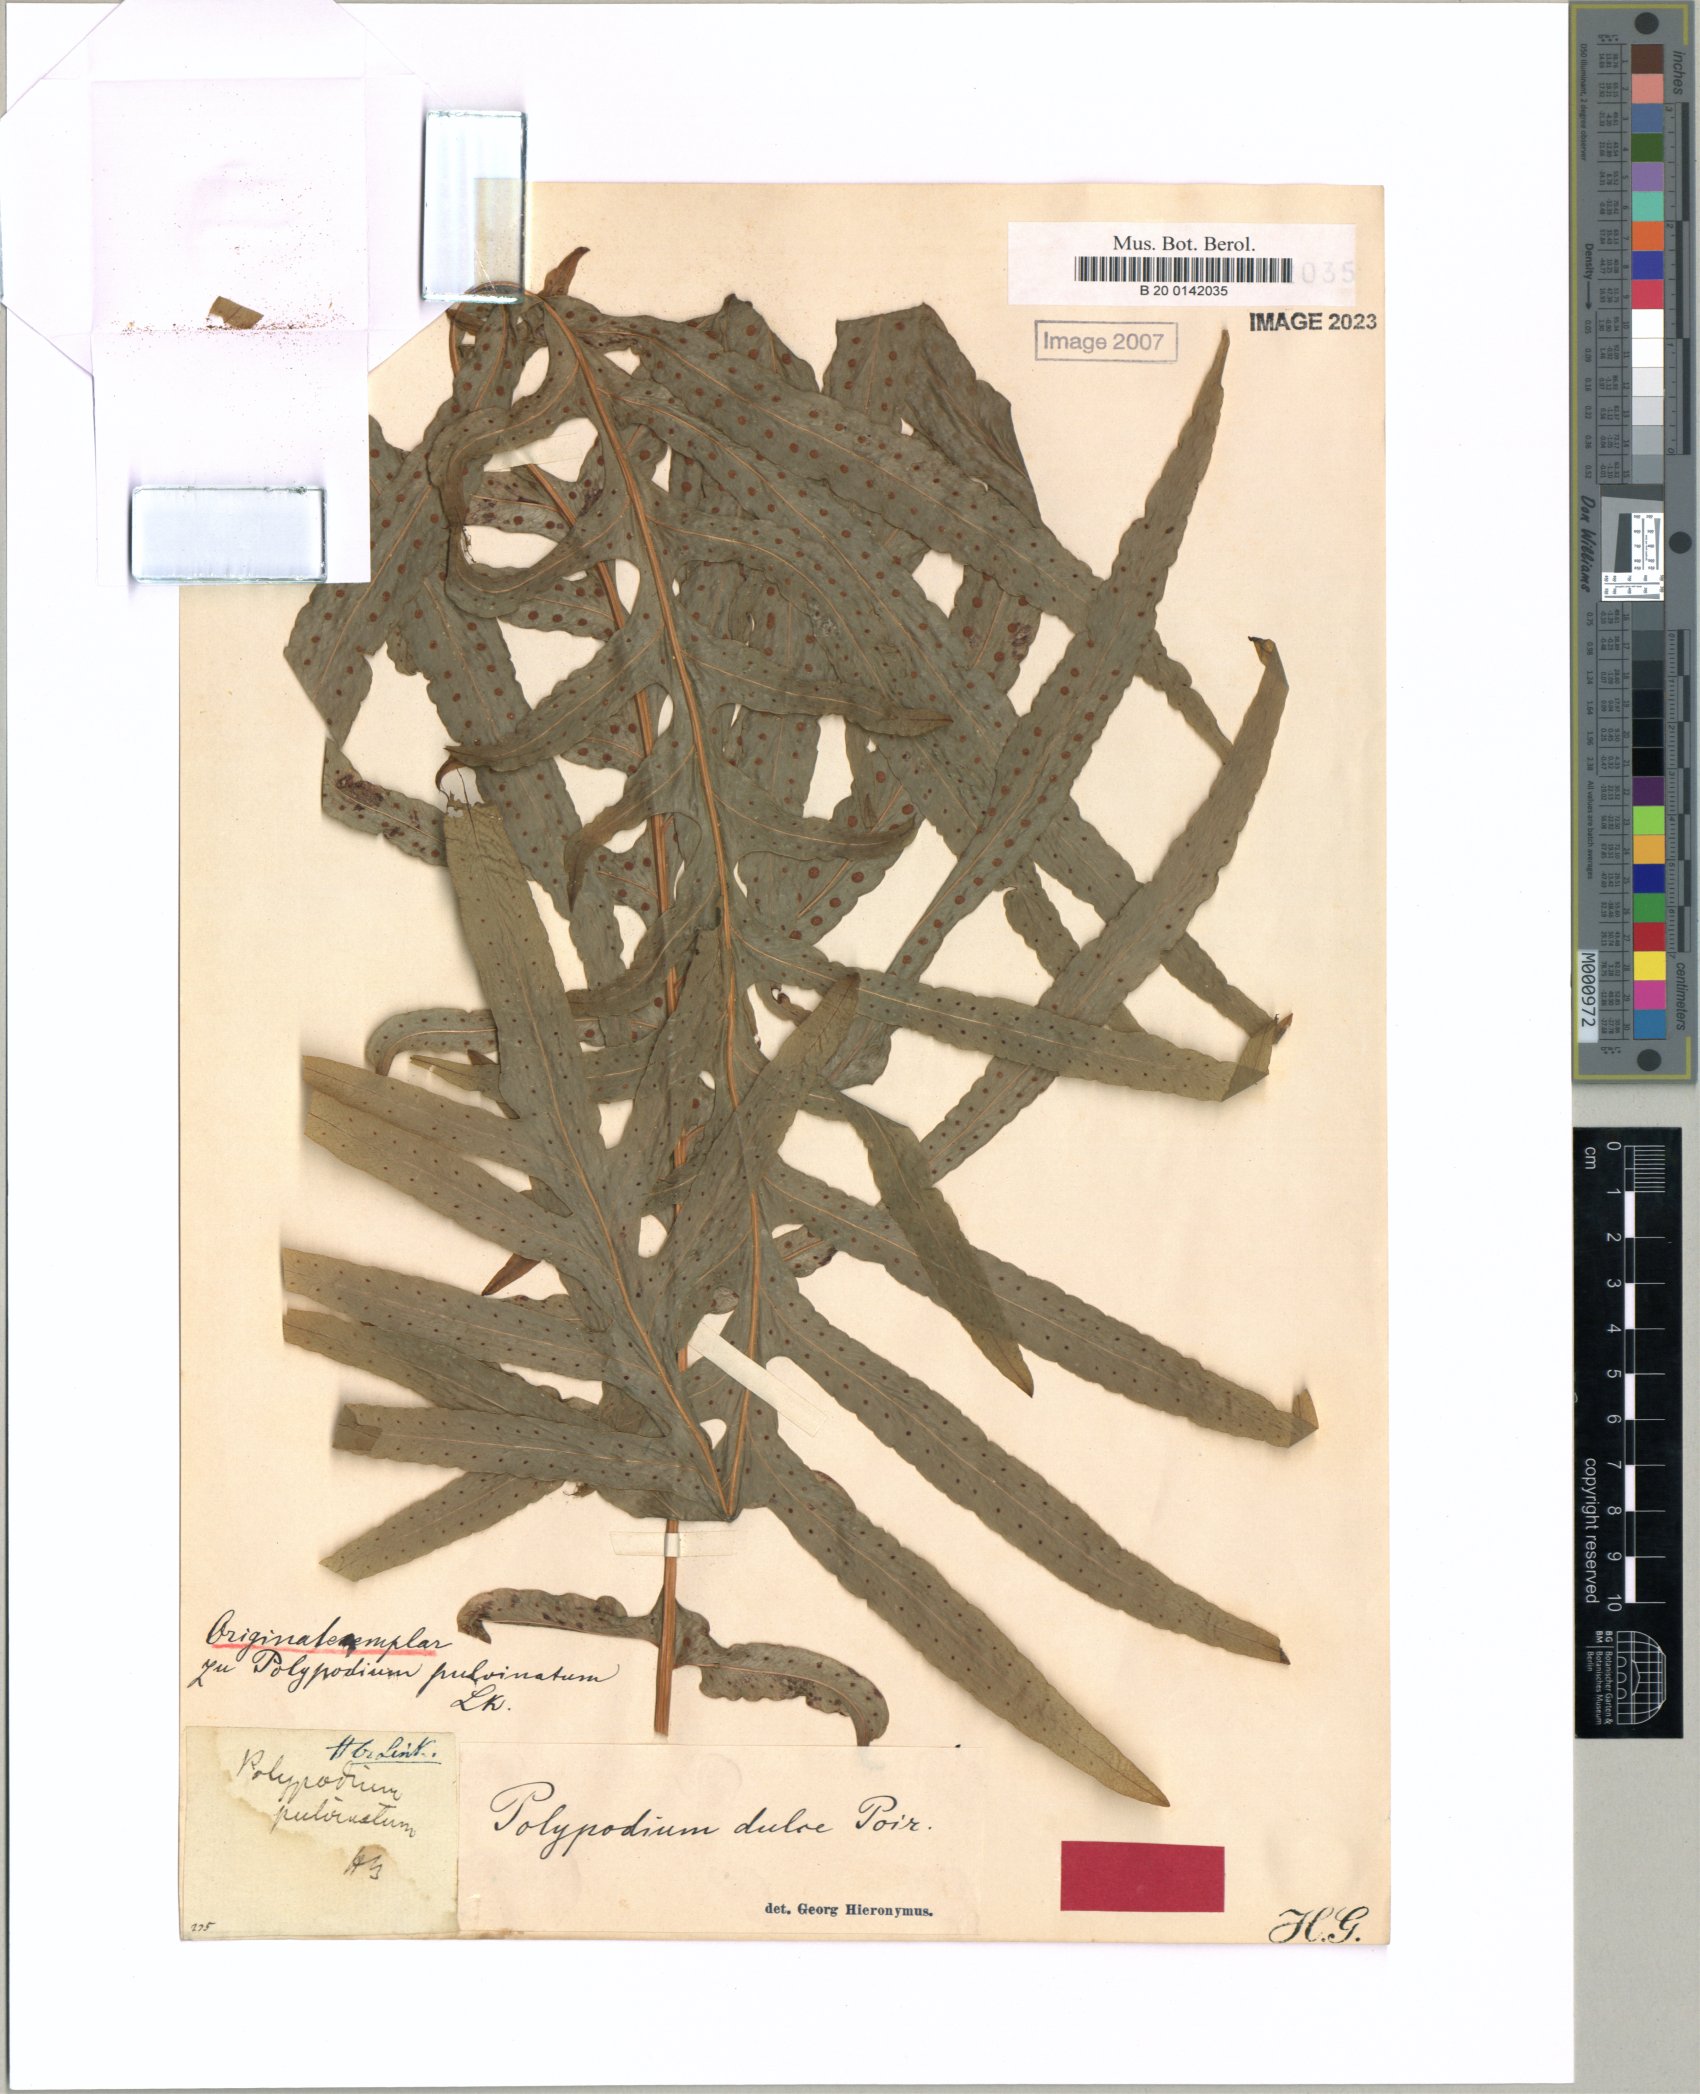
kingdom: Plantae
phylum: Tracheophyta
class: Polypodiopsida
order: Polypodiales
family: Polypodiaceae
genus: Phlebodium
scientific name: Phlebodium aureum
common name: Gold-foot fern
